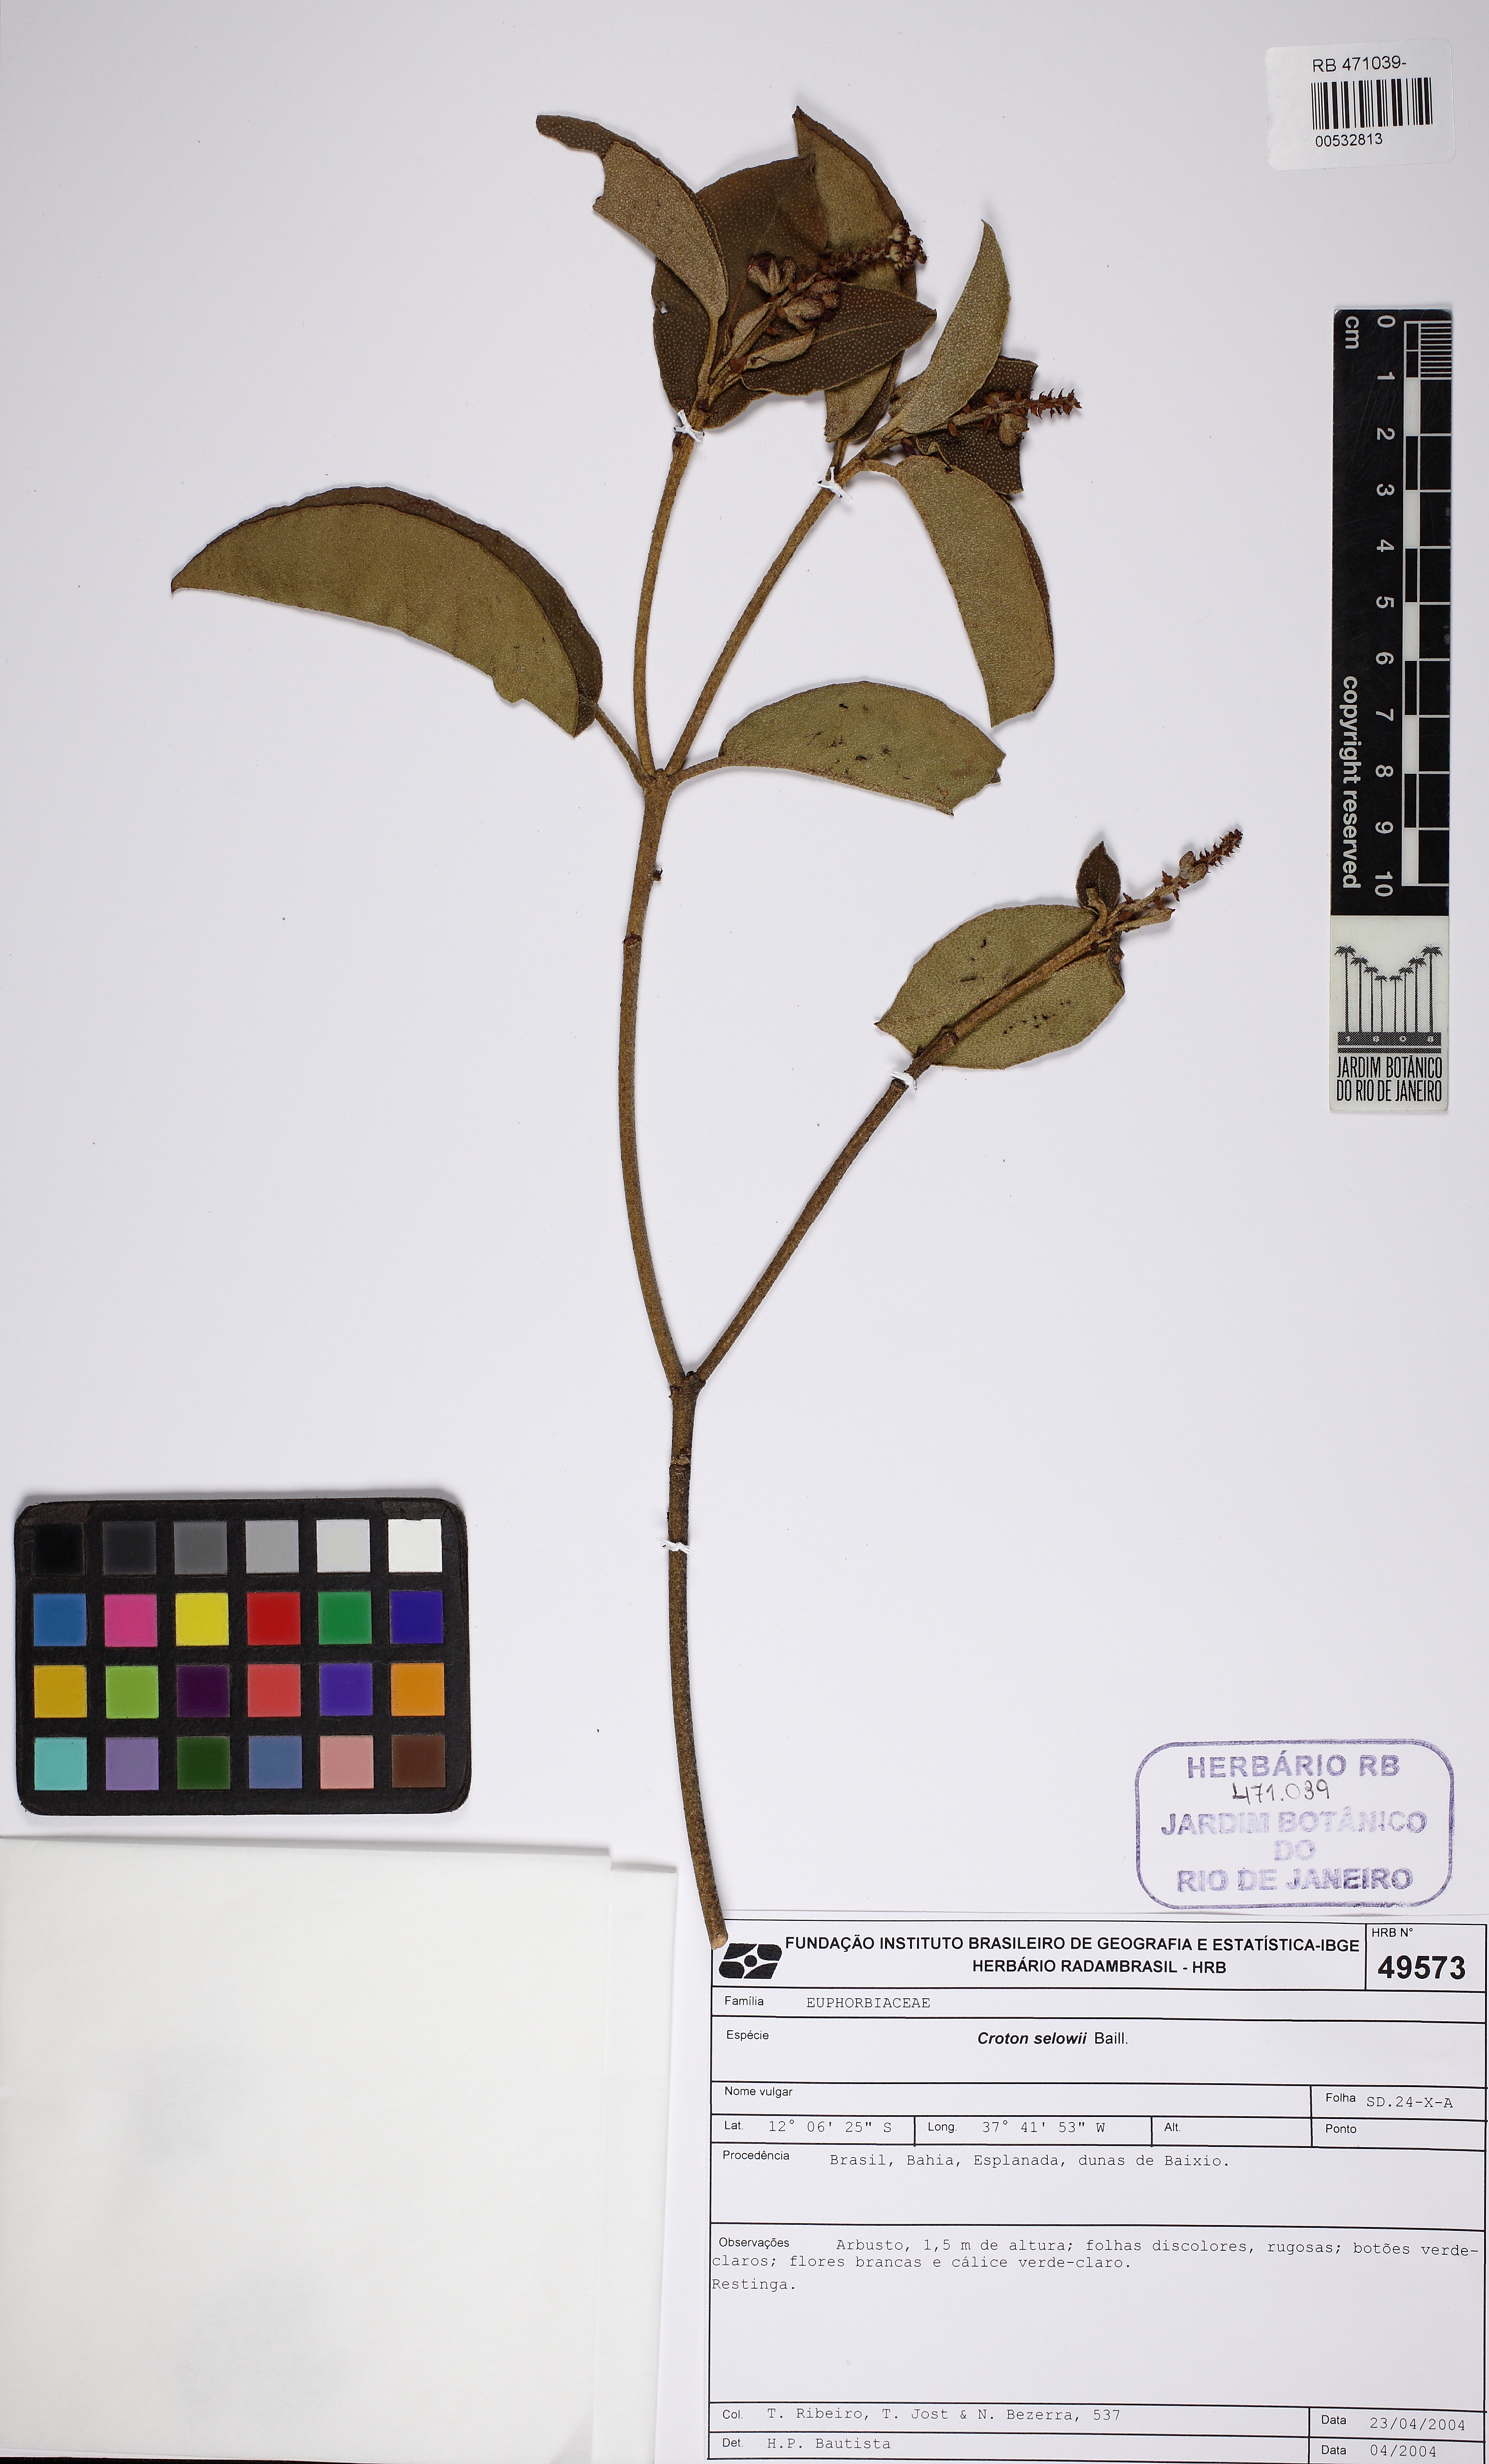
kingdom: Plantae
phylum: Tracheophyta
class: Magnoliopsida
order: Malpighiales
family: Euphorbiaceae
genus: Croton
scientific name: Croton sellowii
